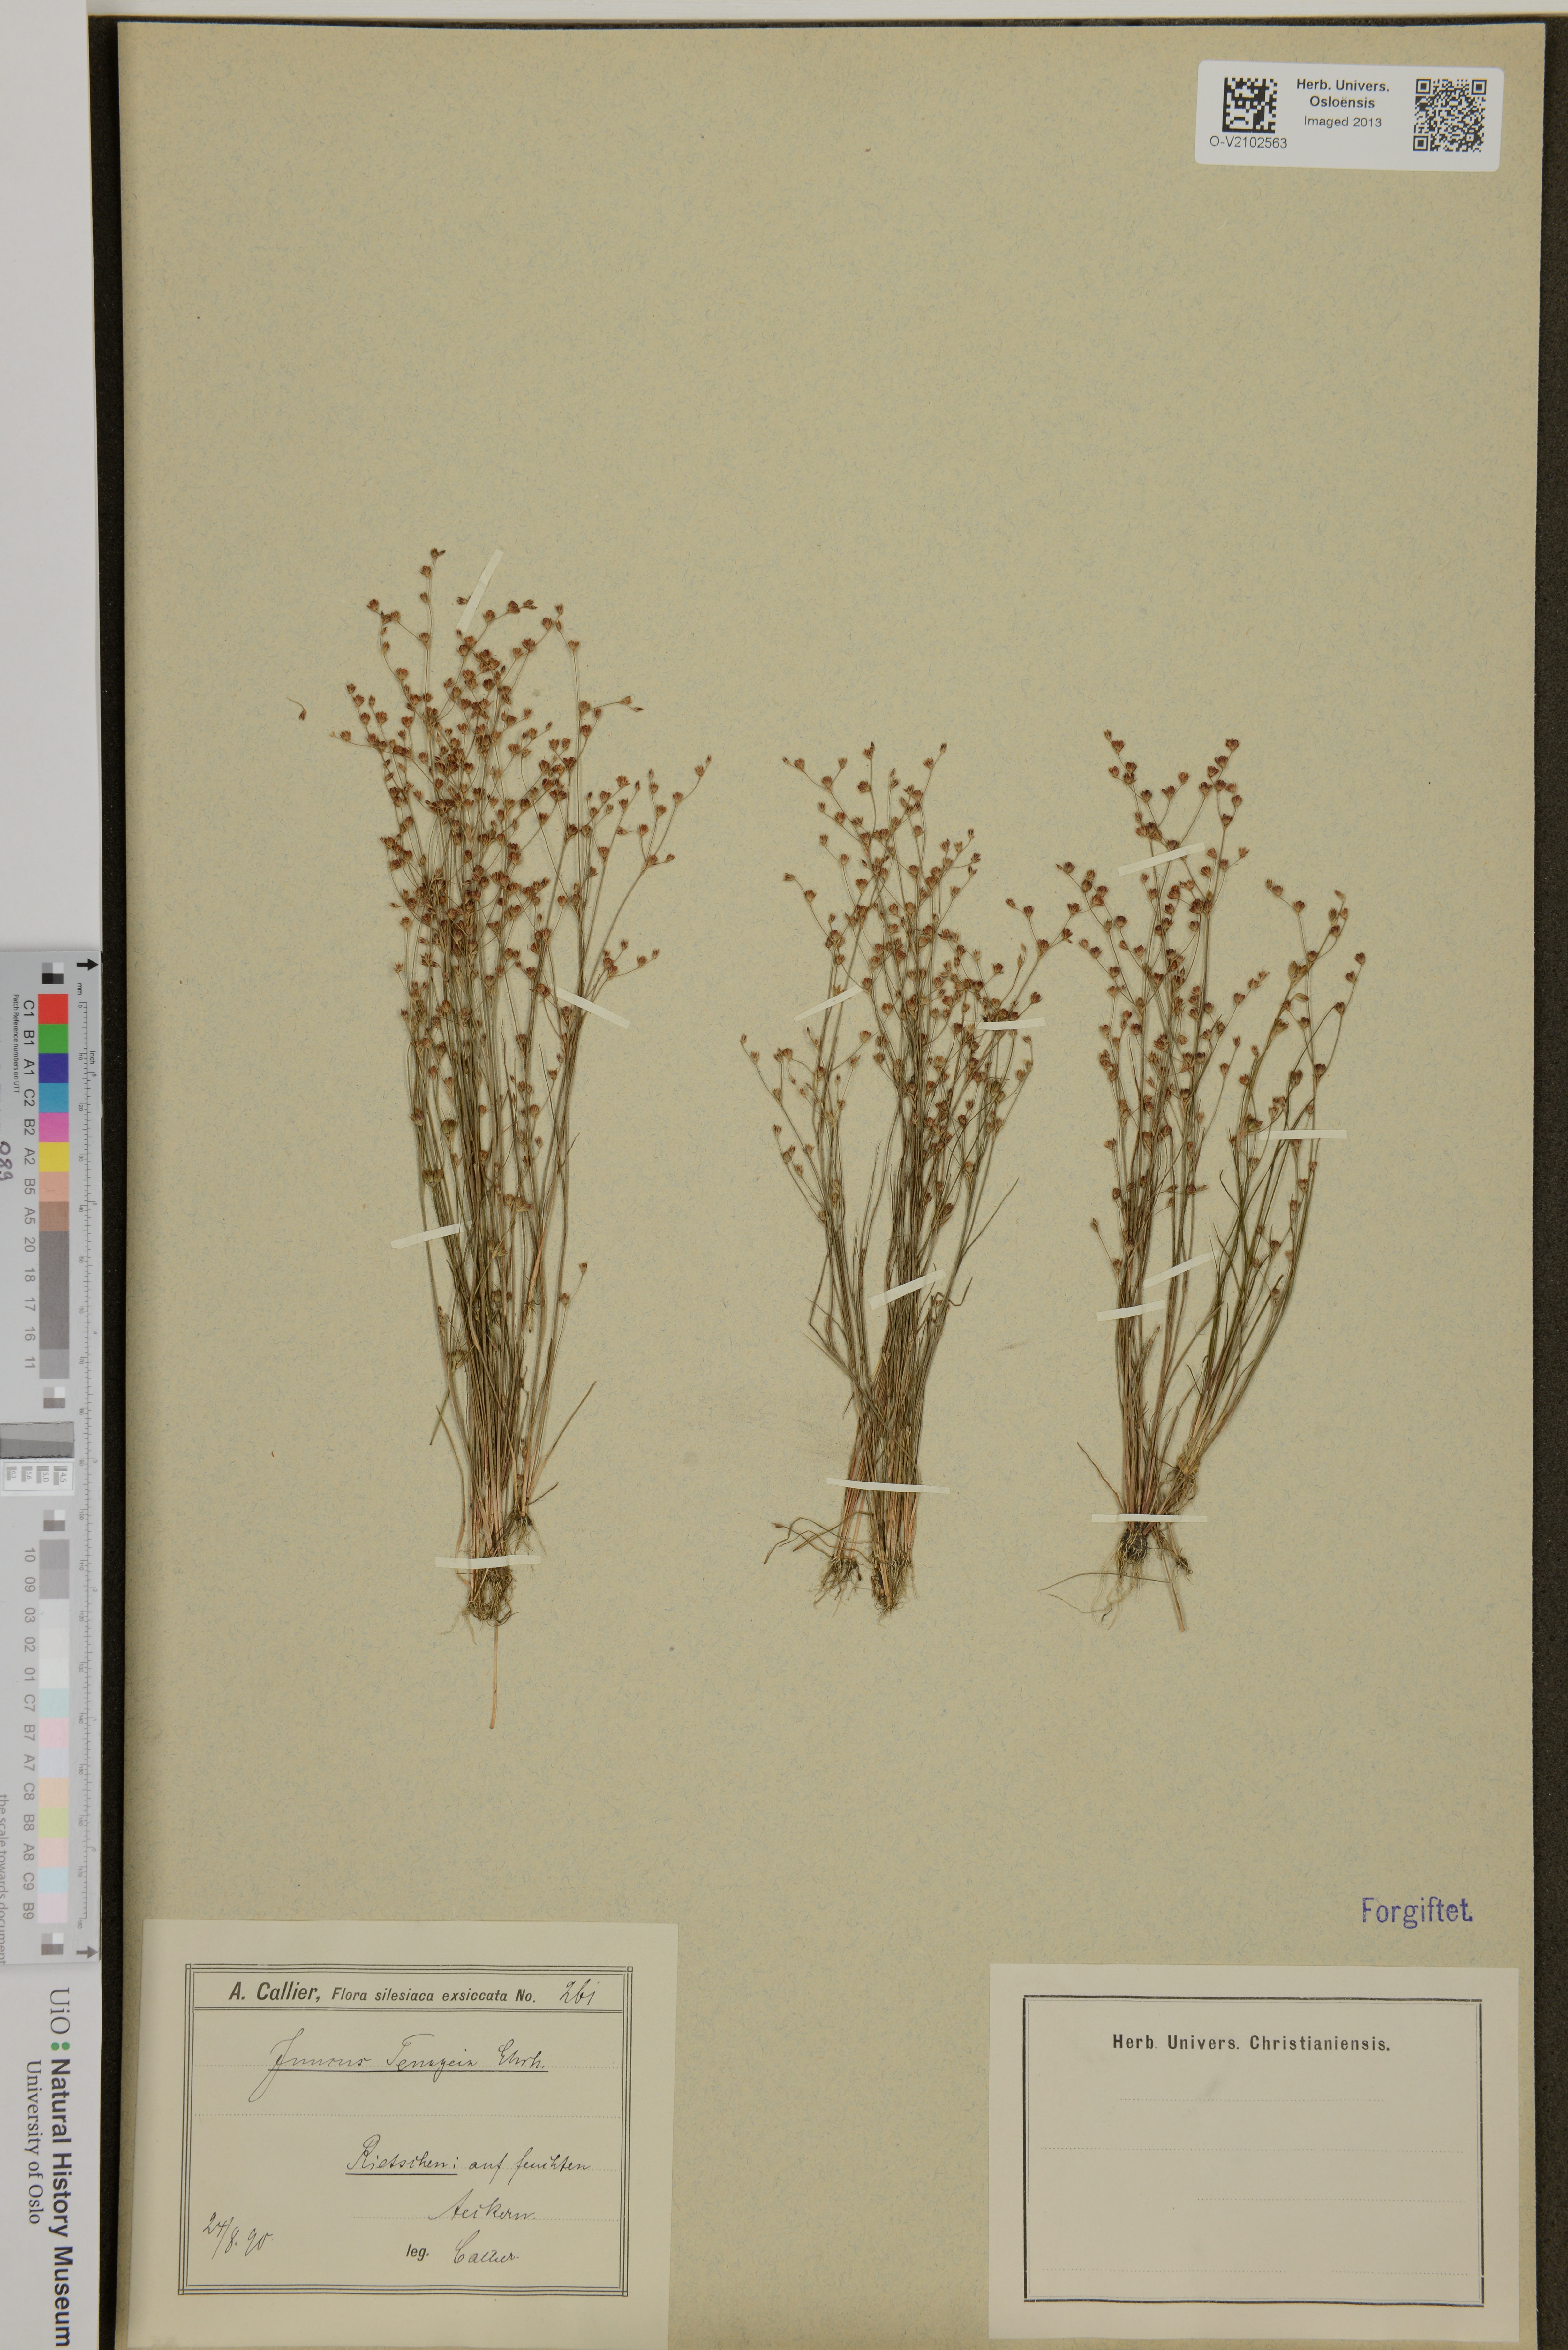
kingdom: Plantae
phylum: Tracheophyta
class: Liliopsida
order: Poales
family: Juncaceae
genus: Juncus
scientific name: Juncus tenageia
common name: Sand rush
